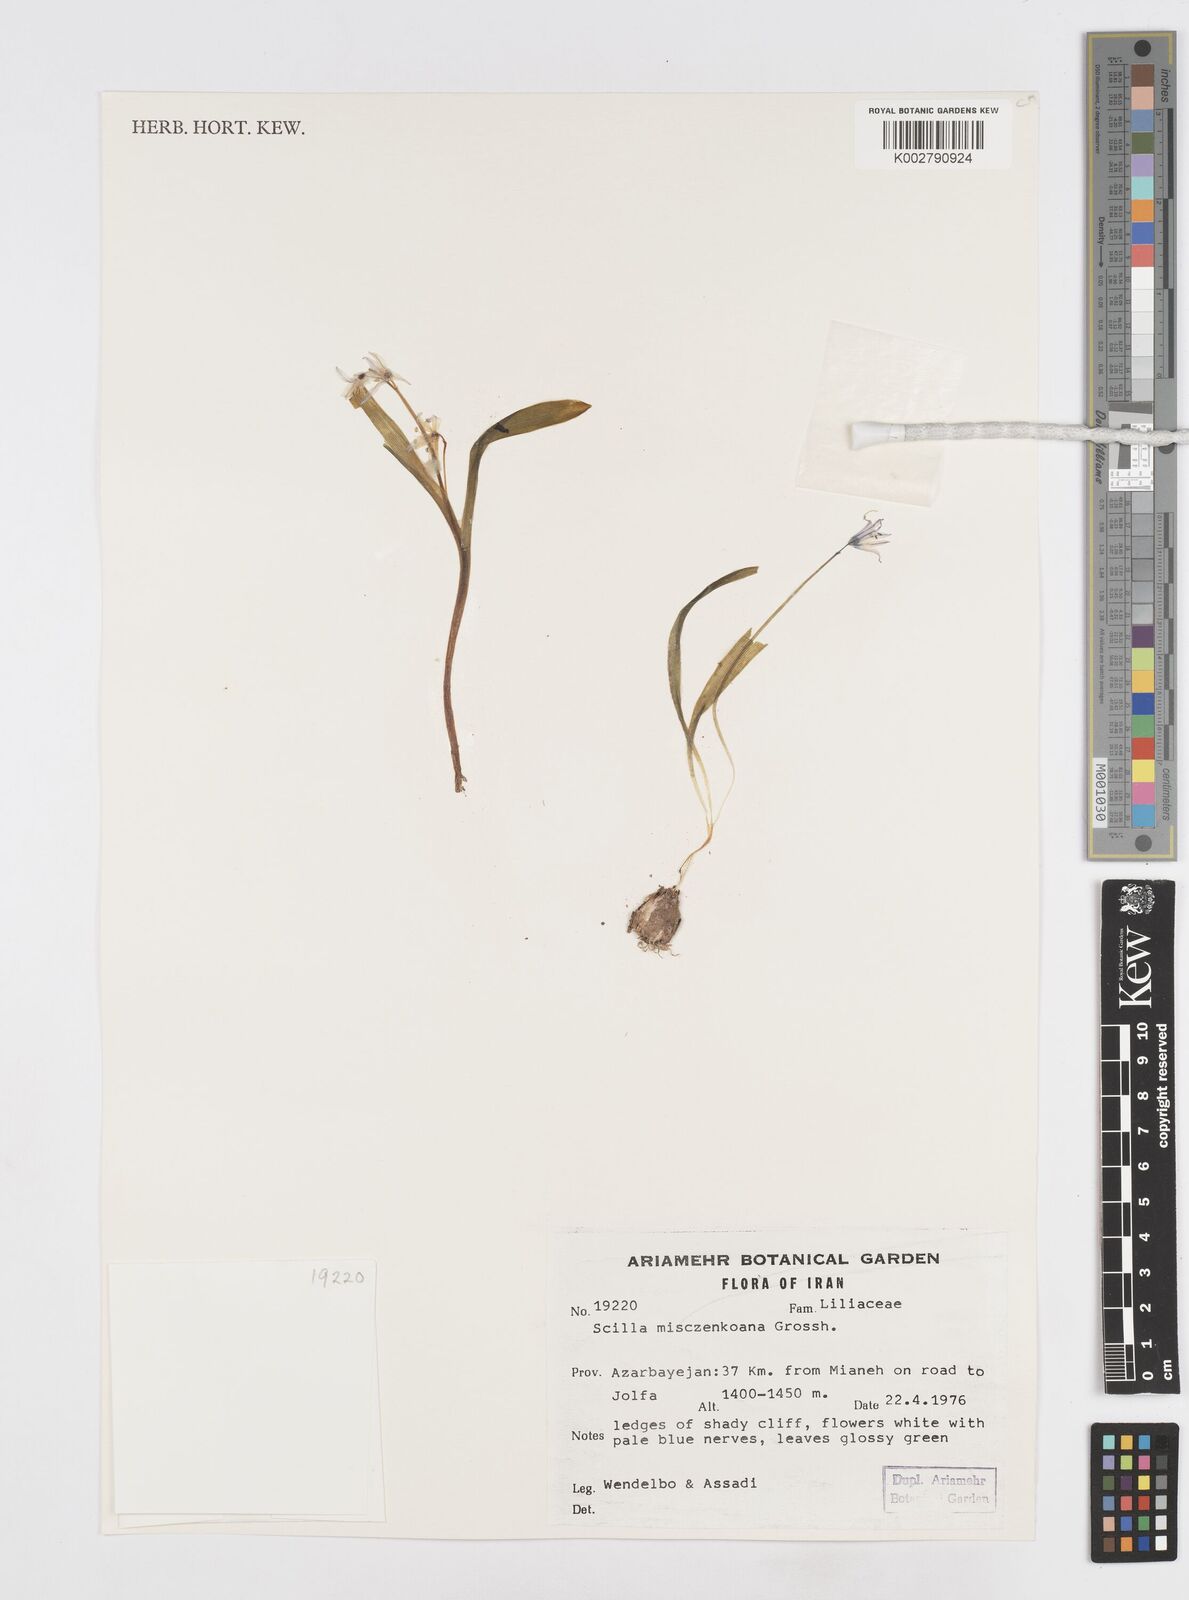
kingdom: Plantae
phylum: Tracheophyta
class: Liliopsida
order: Asparagales
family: Asparagaceae
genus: Scilla
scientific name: Scilla mischtschenkoana
